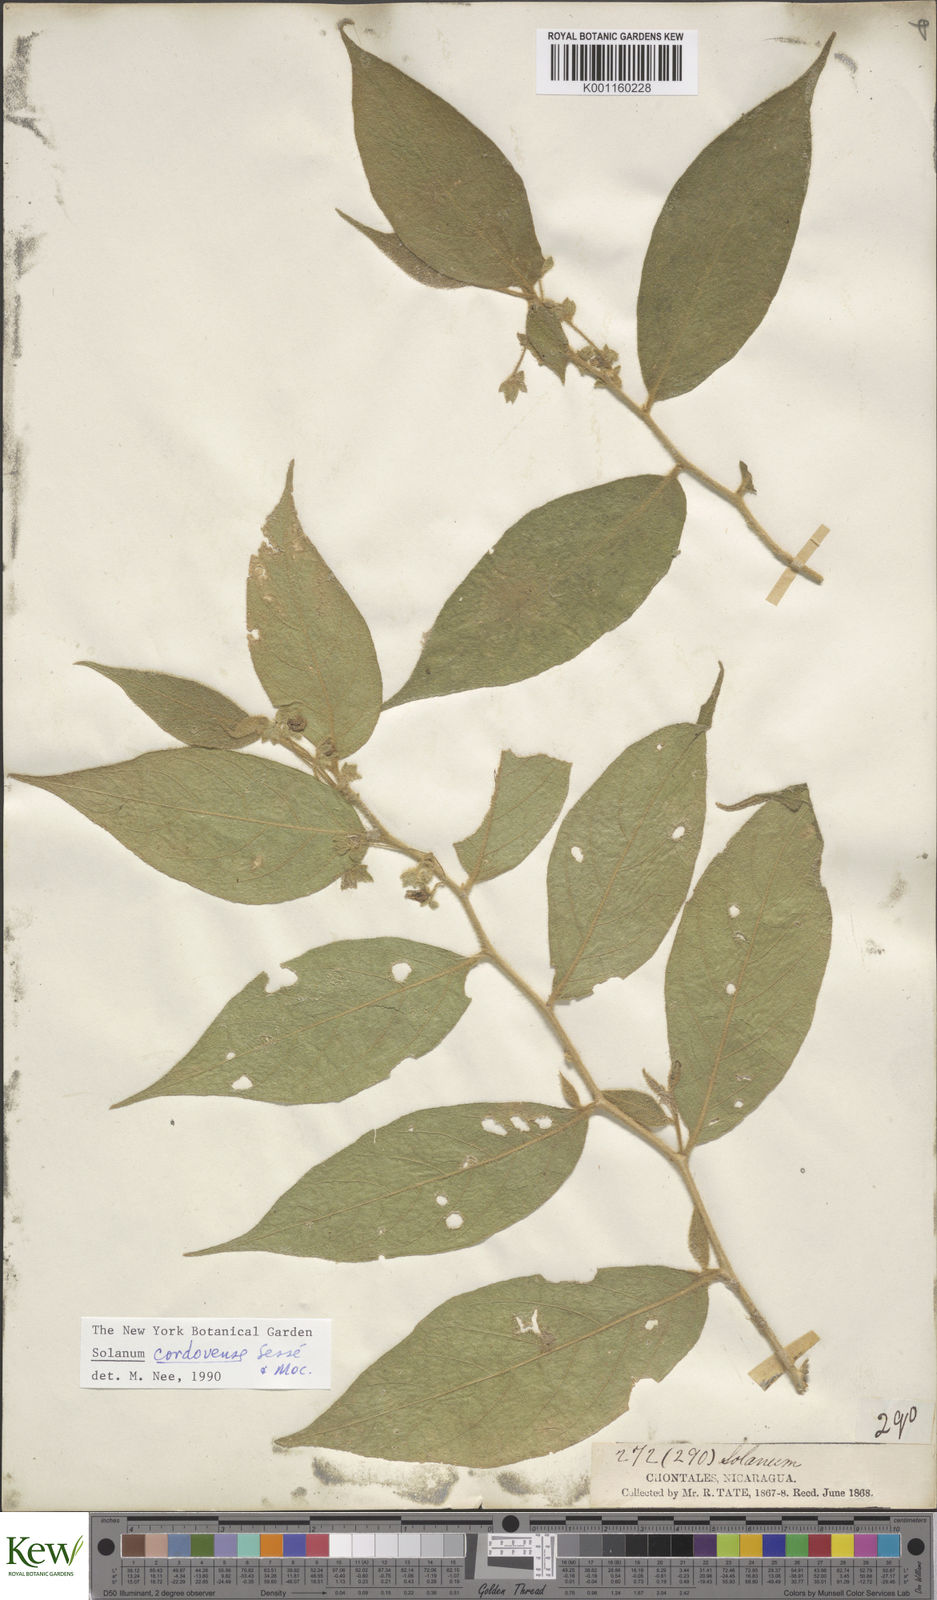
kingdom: Plantae
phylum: Tracheophyta
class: Magnoliopsida
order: Solanales
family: Solanaceae
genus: Solanum
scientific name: Solanum
